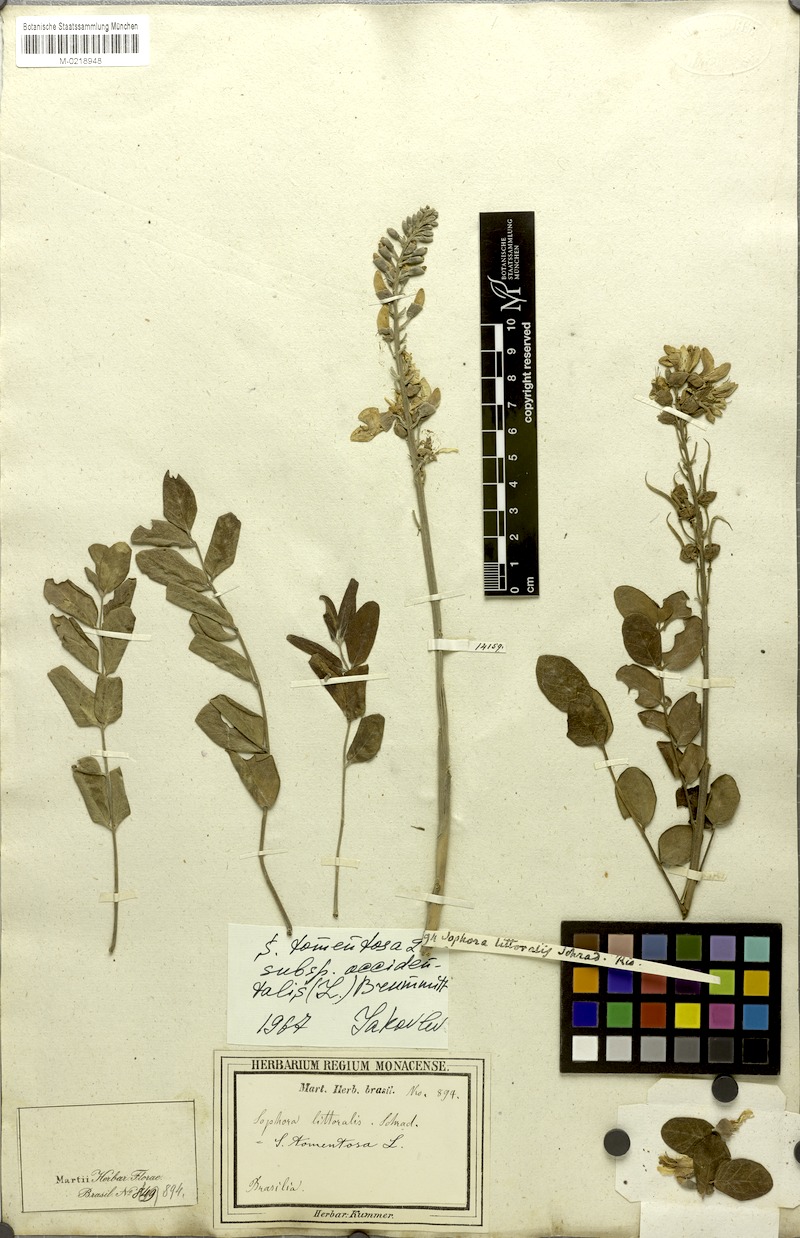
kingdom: Plantae
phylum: Tracheophyta
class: Magnoliopsida
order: Fabales
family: Fabaceae
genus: Sophora
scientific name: Sophora tomentosa
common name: Yellow necklacepod
